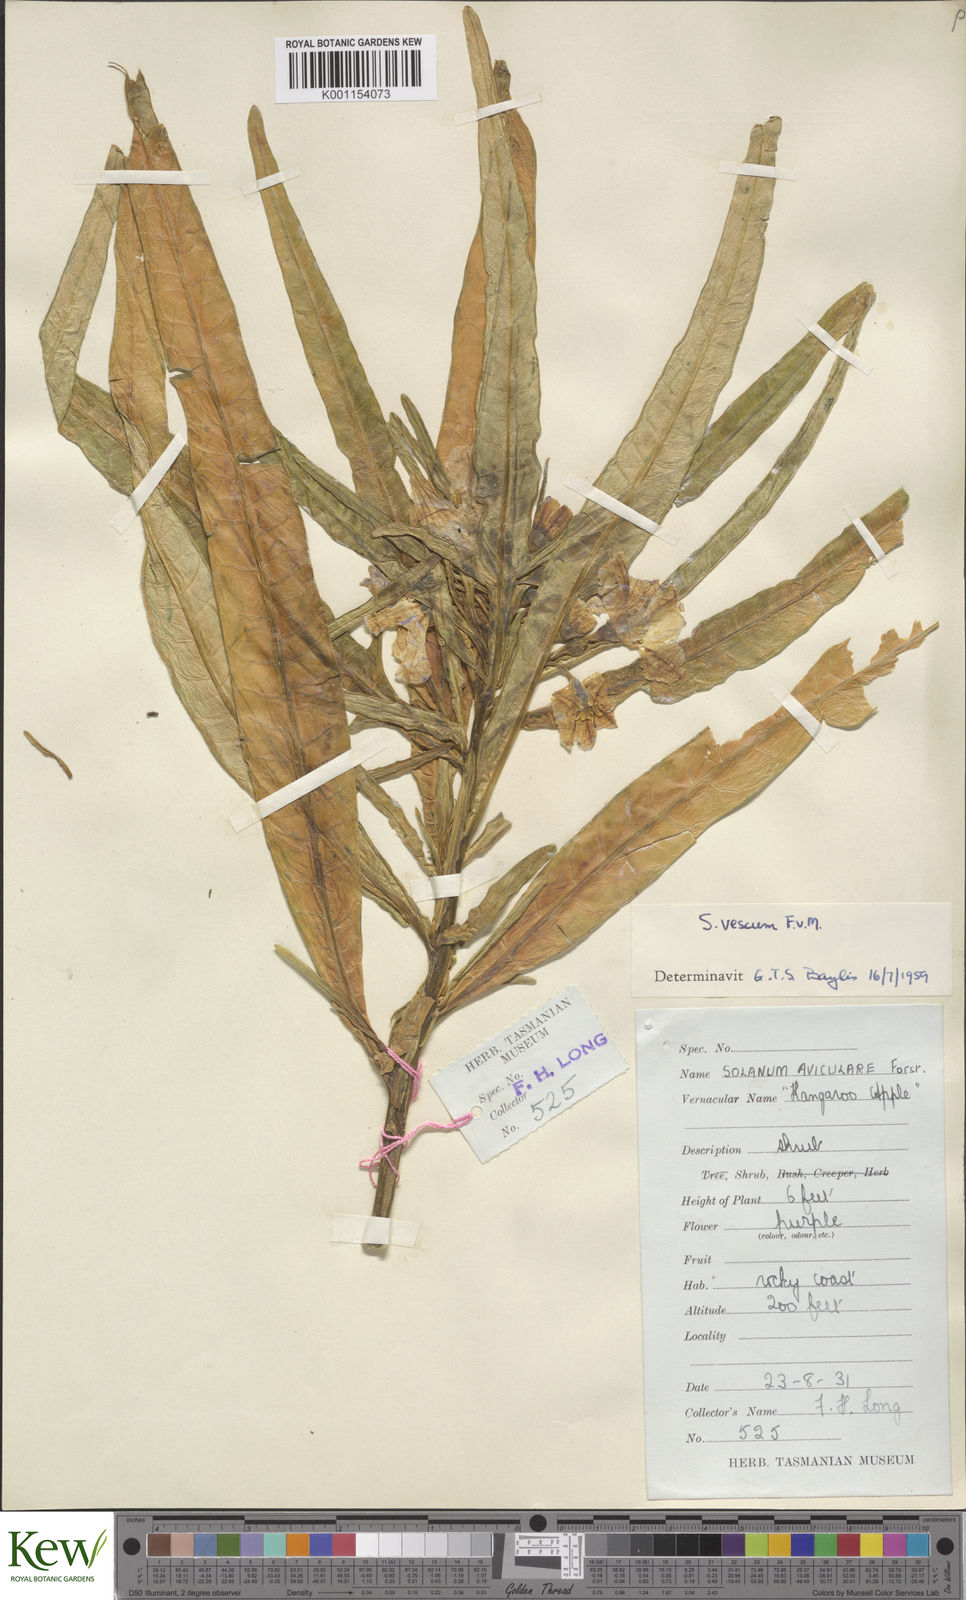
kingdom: Plantae
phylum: Tracheophyta
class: Magnoliopsida
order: Solanales
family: Solanaceae
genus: Solanum
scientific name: Solanum vescum
